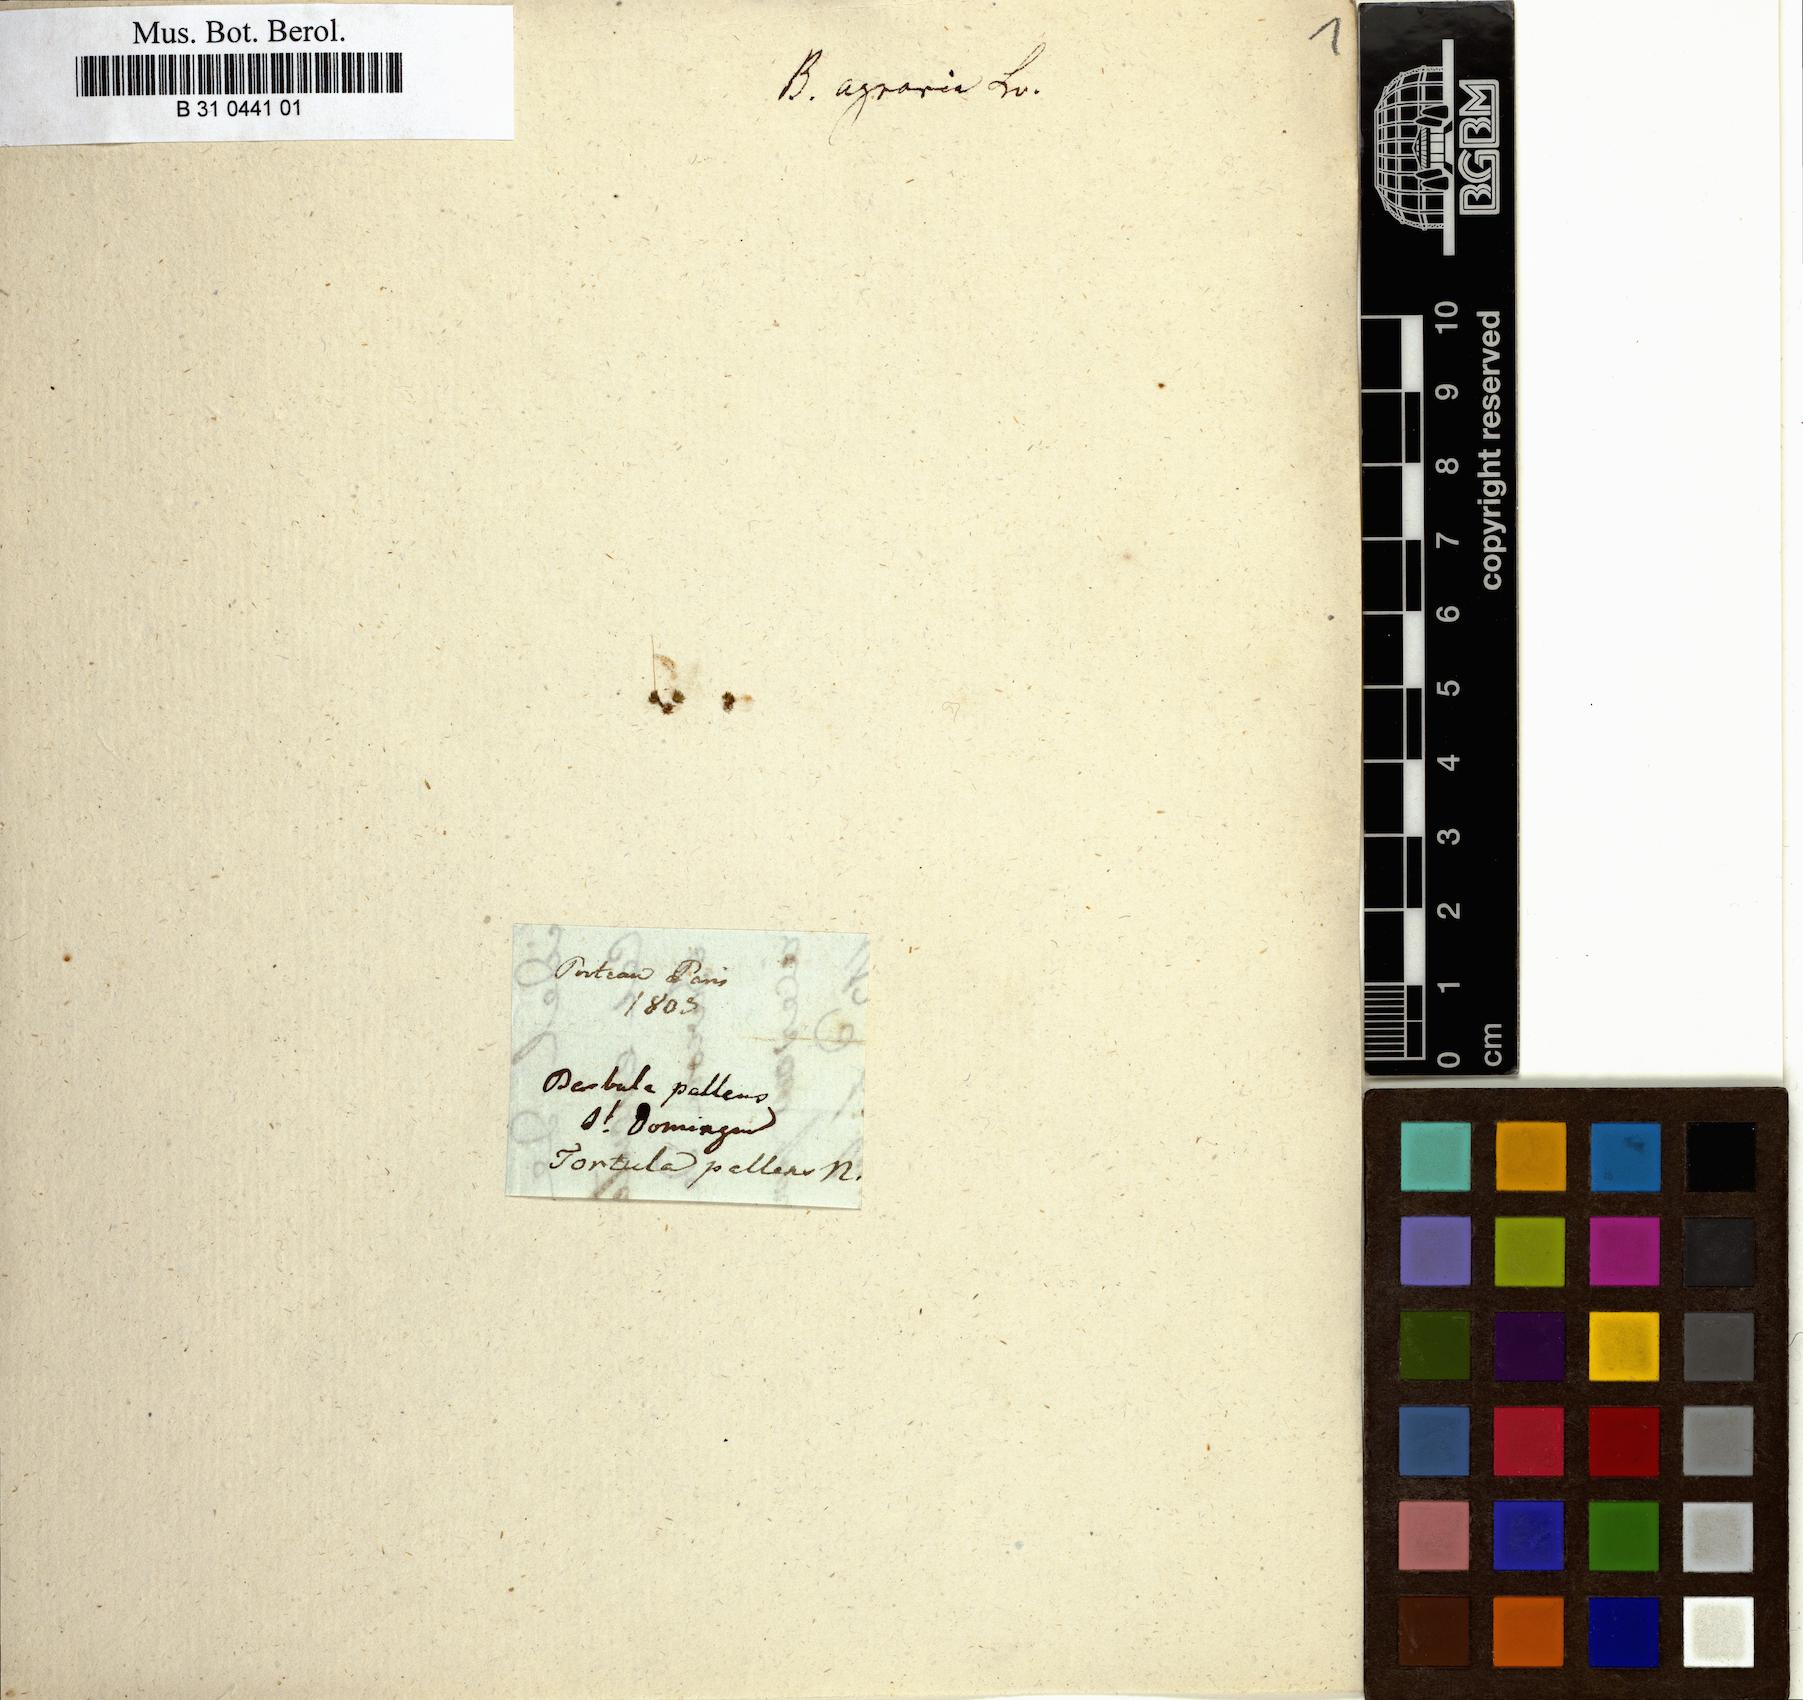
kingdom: Plantae
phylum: Bryophyta
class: Bryopsida
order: Pottiales
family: Pottiaceae
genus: Hyophiladelphus
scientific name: Hyophiladelphus agrarius
